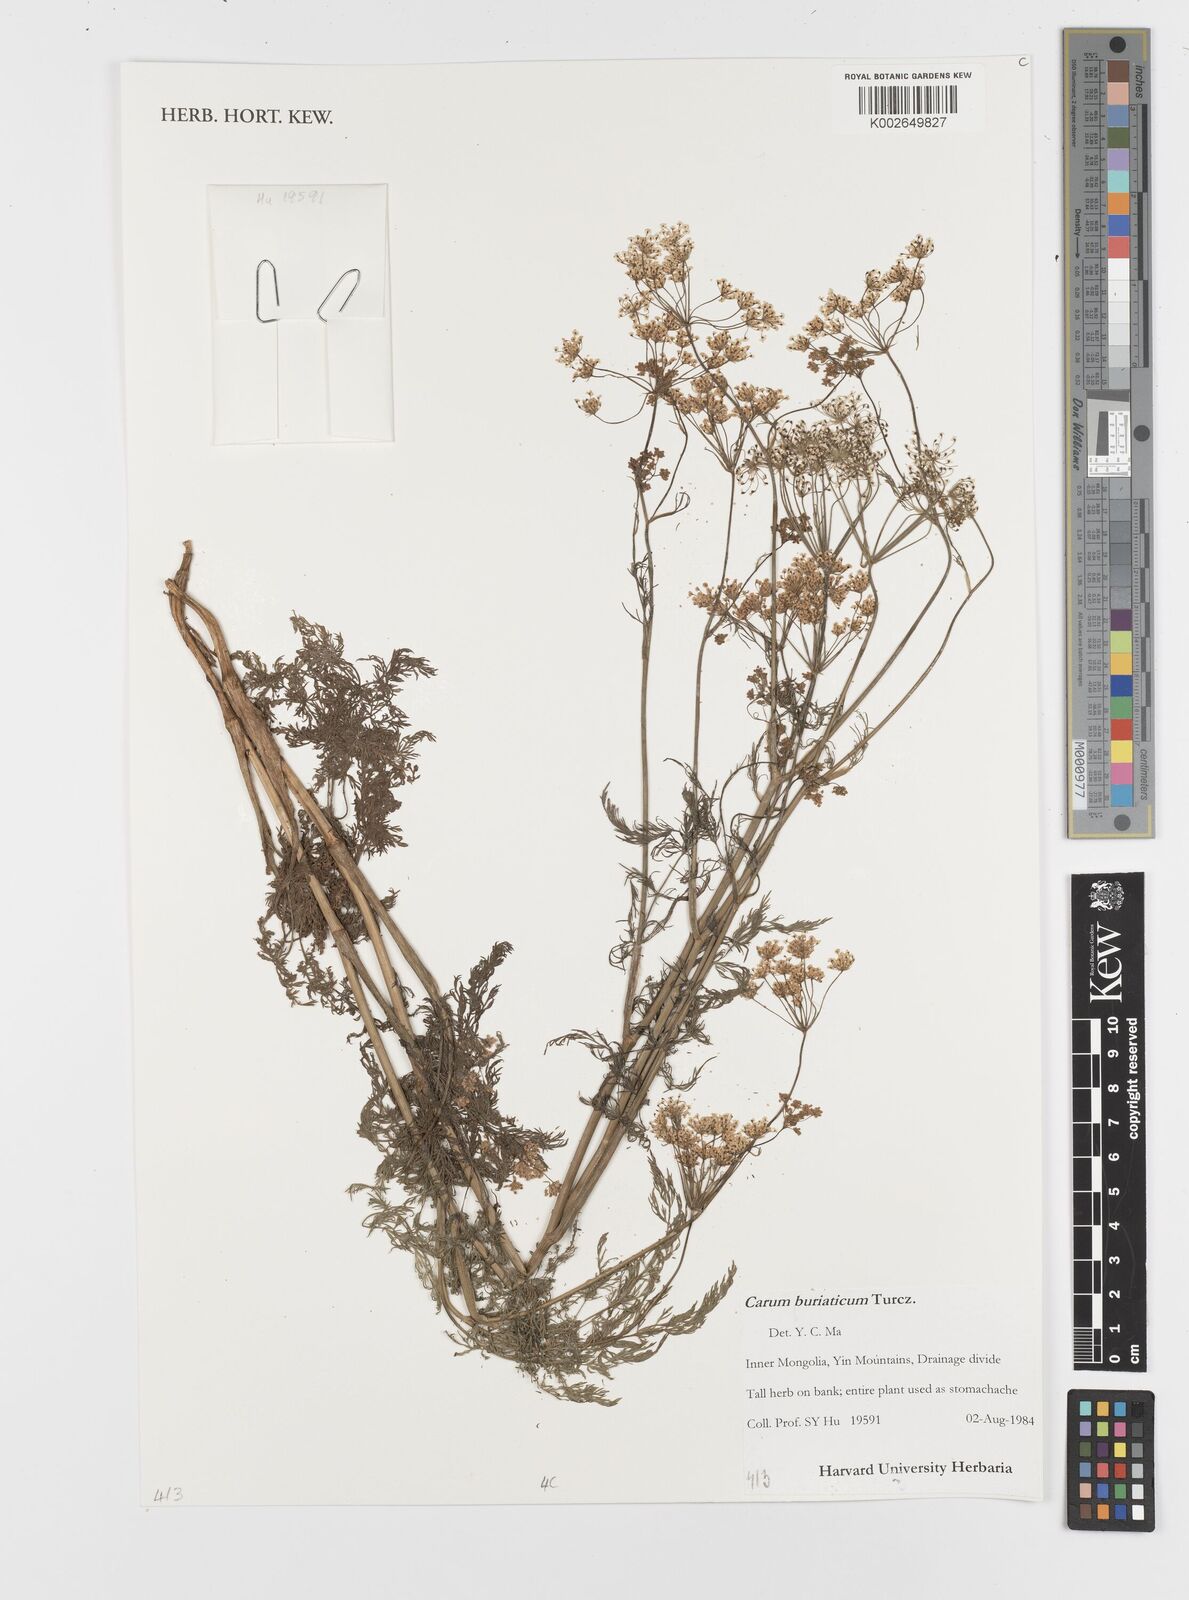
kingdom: Plantae
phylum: Tracheophyta
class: Magnoliopsida
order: Apiales
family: Apiaceae
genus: Carum
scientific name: Carum buriaticum
